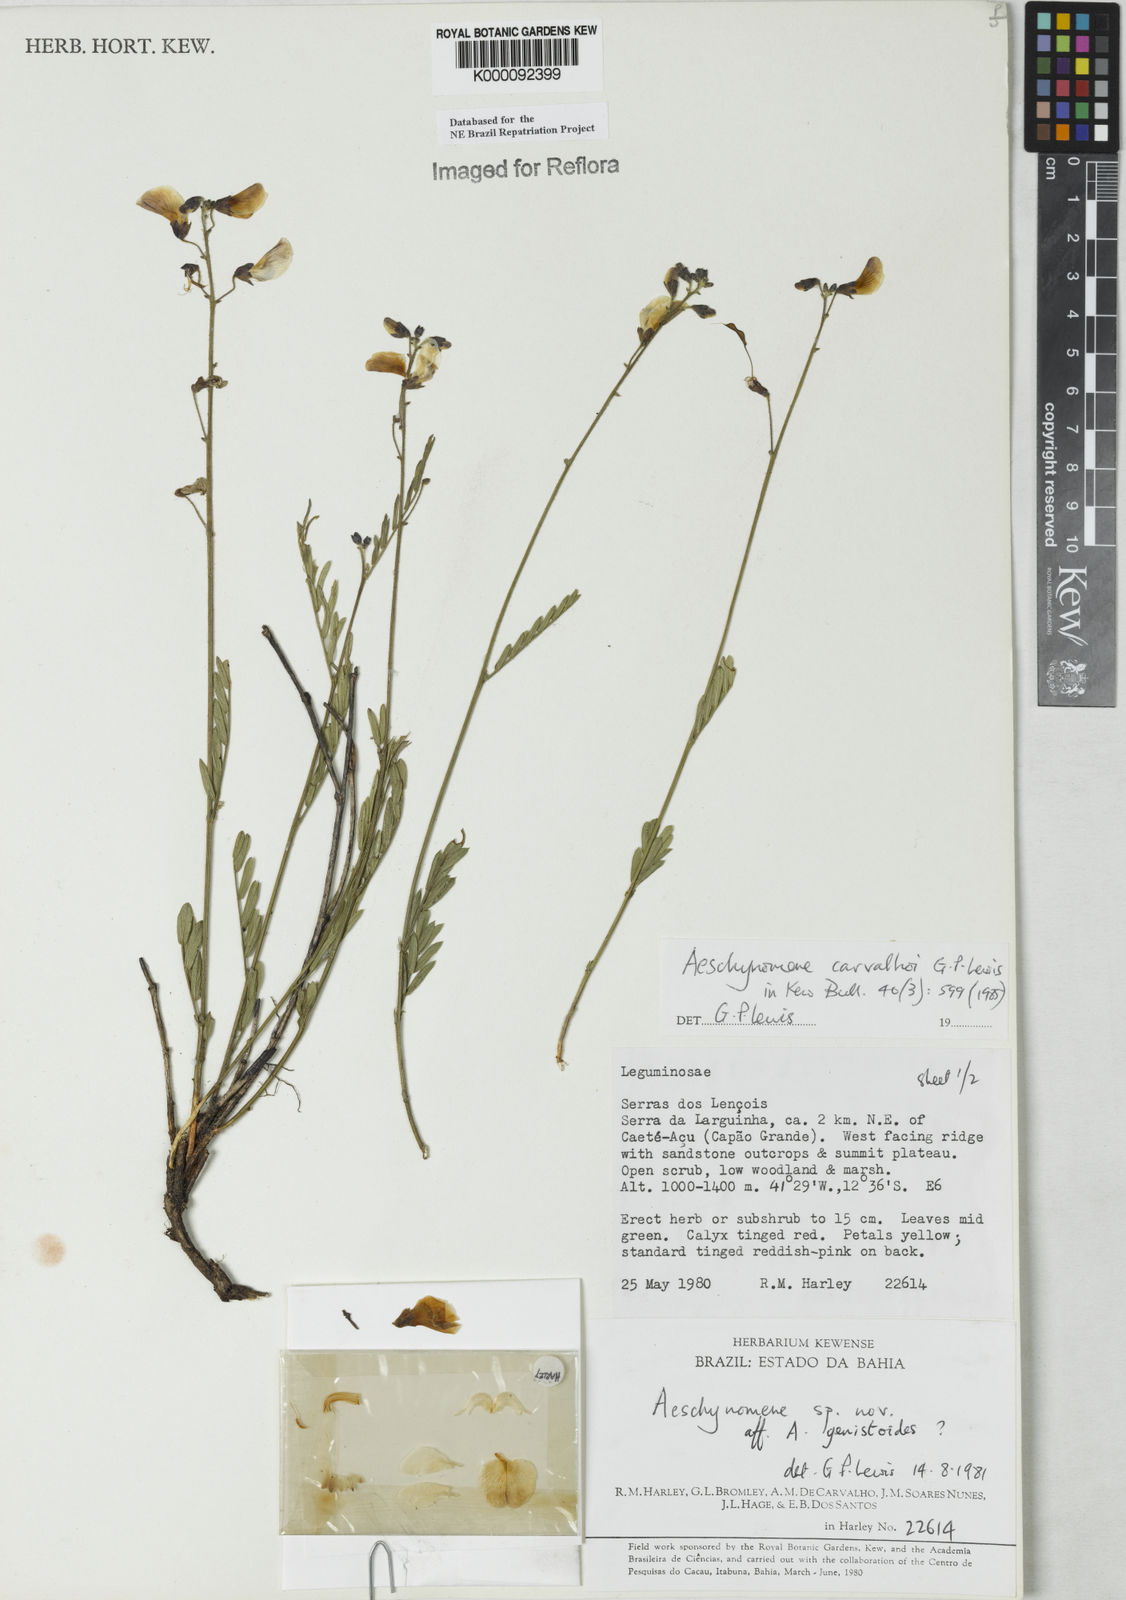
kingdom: Plantae
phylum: Tracheophyta
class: Magnoliopsida
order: Fabales
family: Fabaceae
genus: Ctenodon
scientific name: Ctenodon carvalhoi
